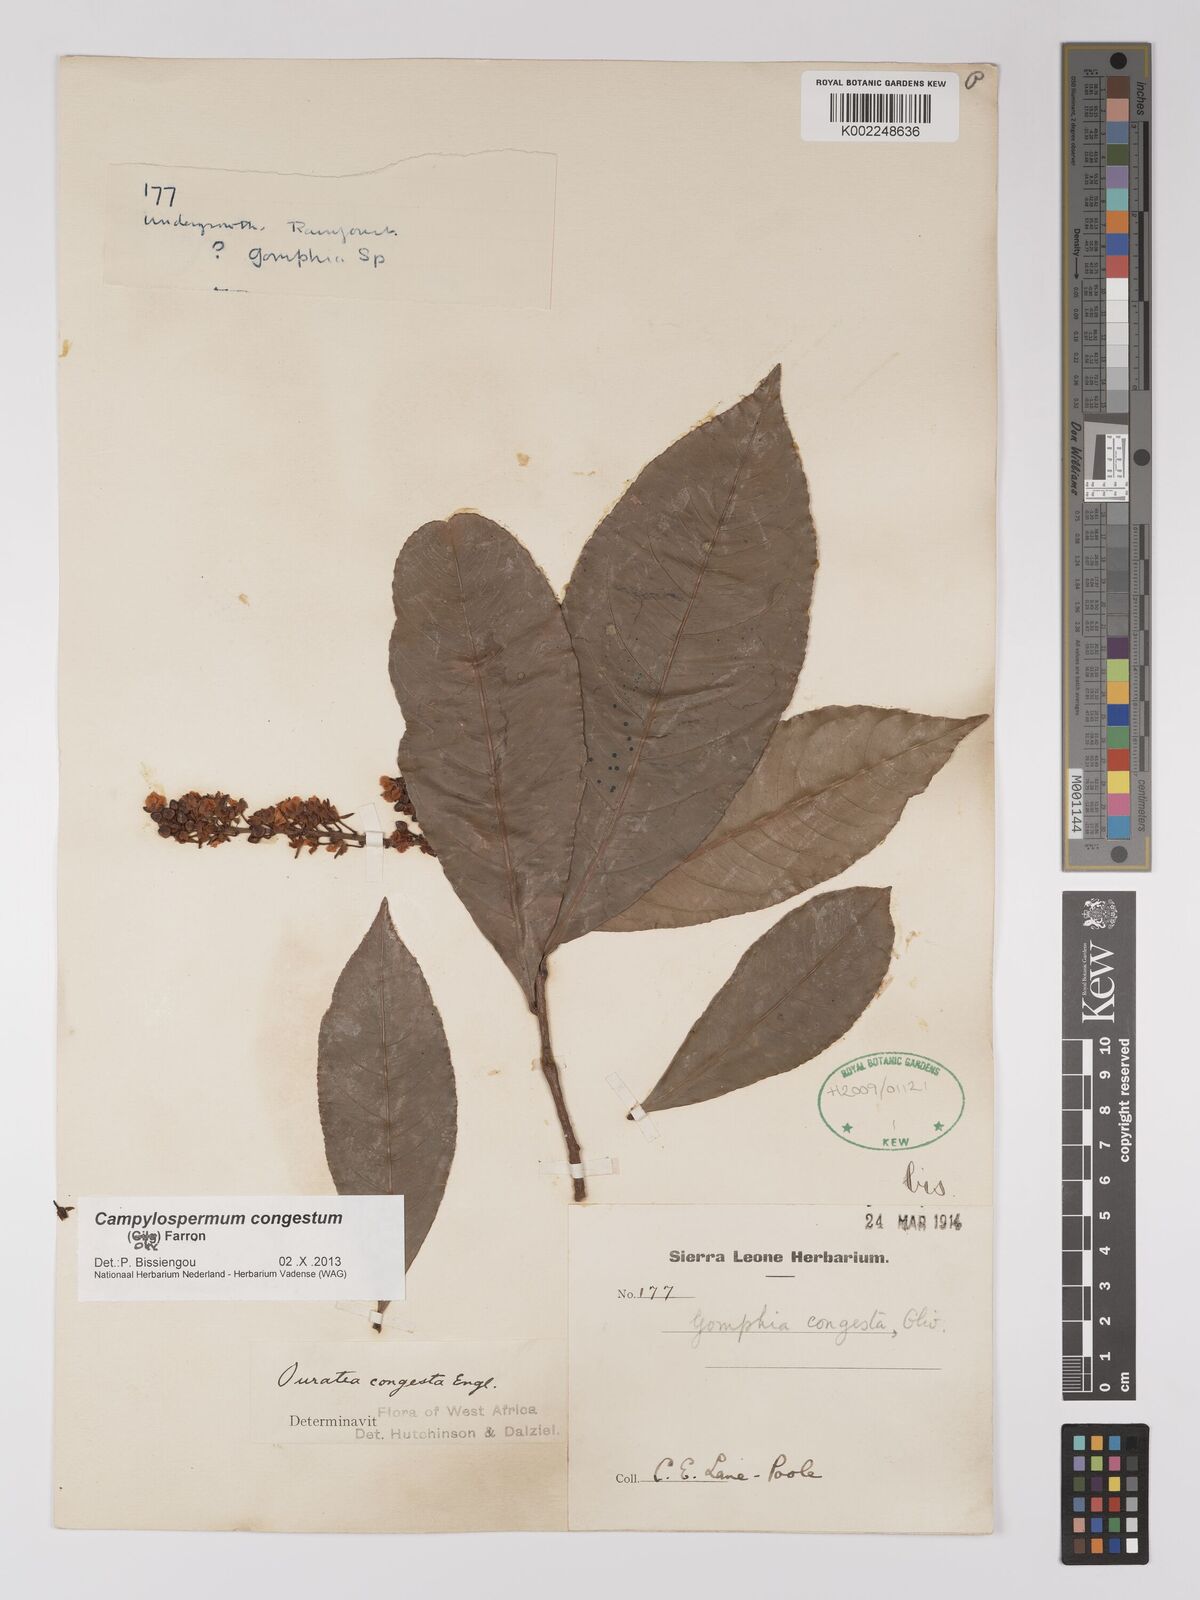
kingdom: Plantae
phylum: Tracheophyta
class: Magnoliopsida
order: Malpighiales
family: Ochnaceae
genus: Campylospermum
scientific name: Campylospermum congestum
